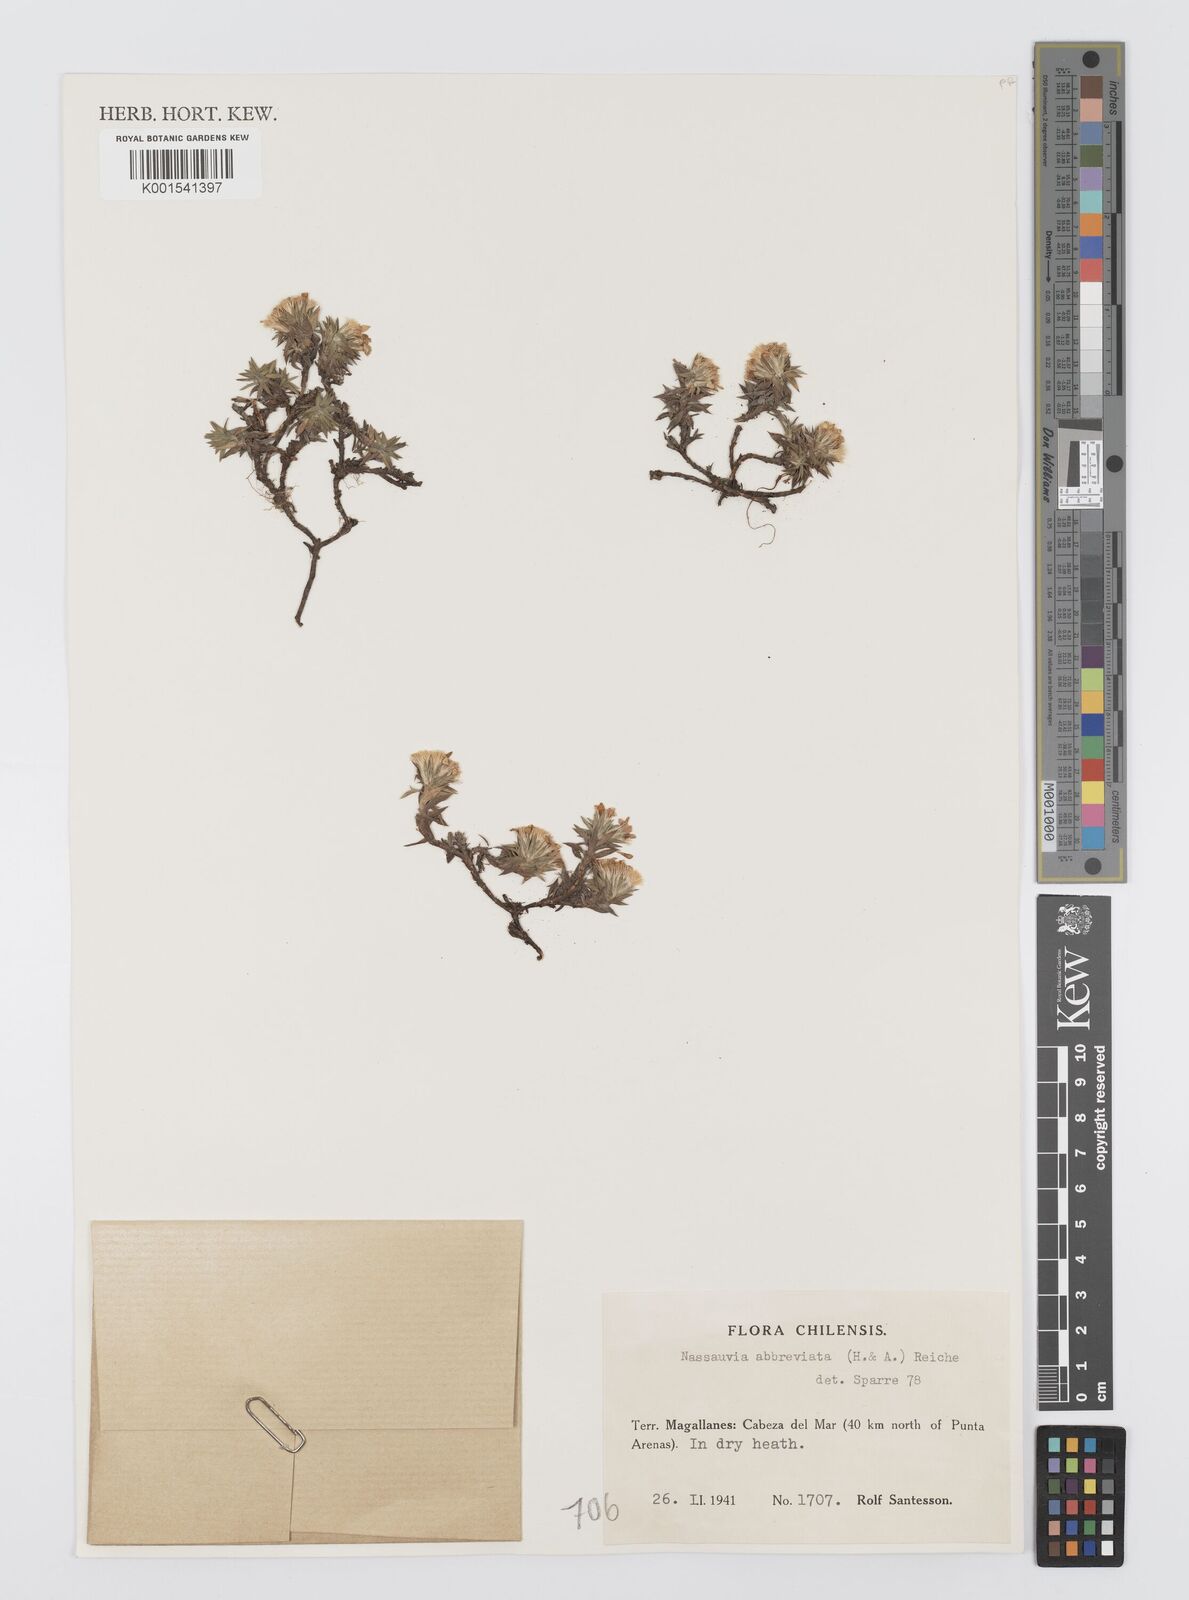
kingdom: Plantae
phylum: Tracheophyta
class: Magnoliopsida
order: Asterales
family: Asteraceae
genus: Nassauvia
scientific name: Nassauvia aculeata
